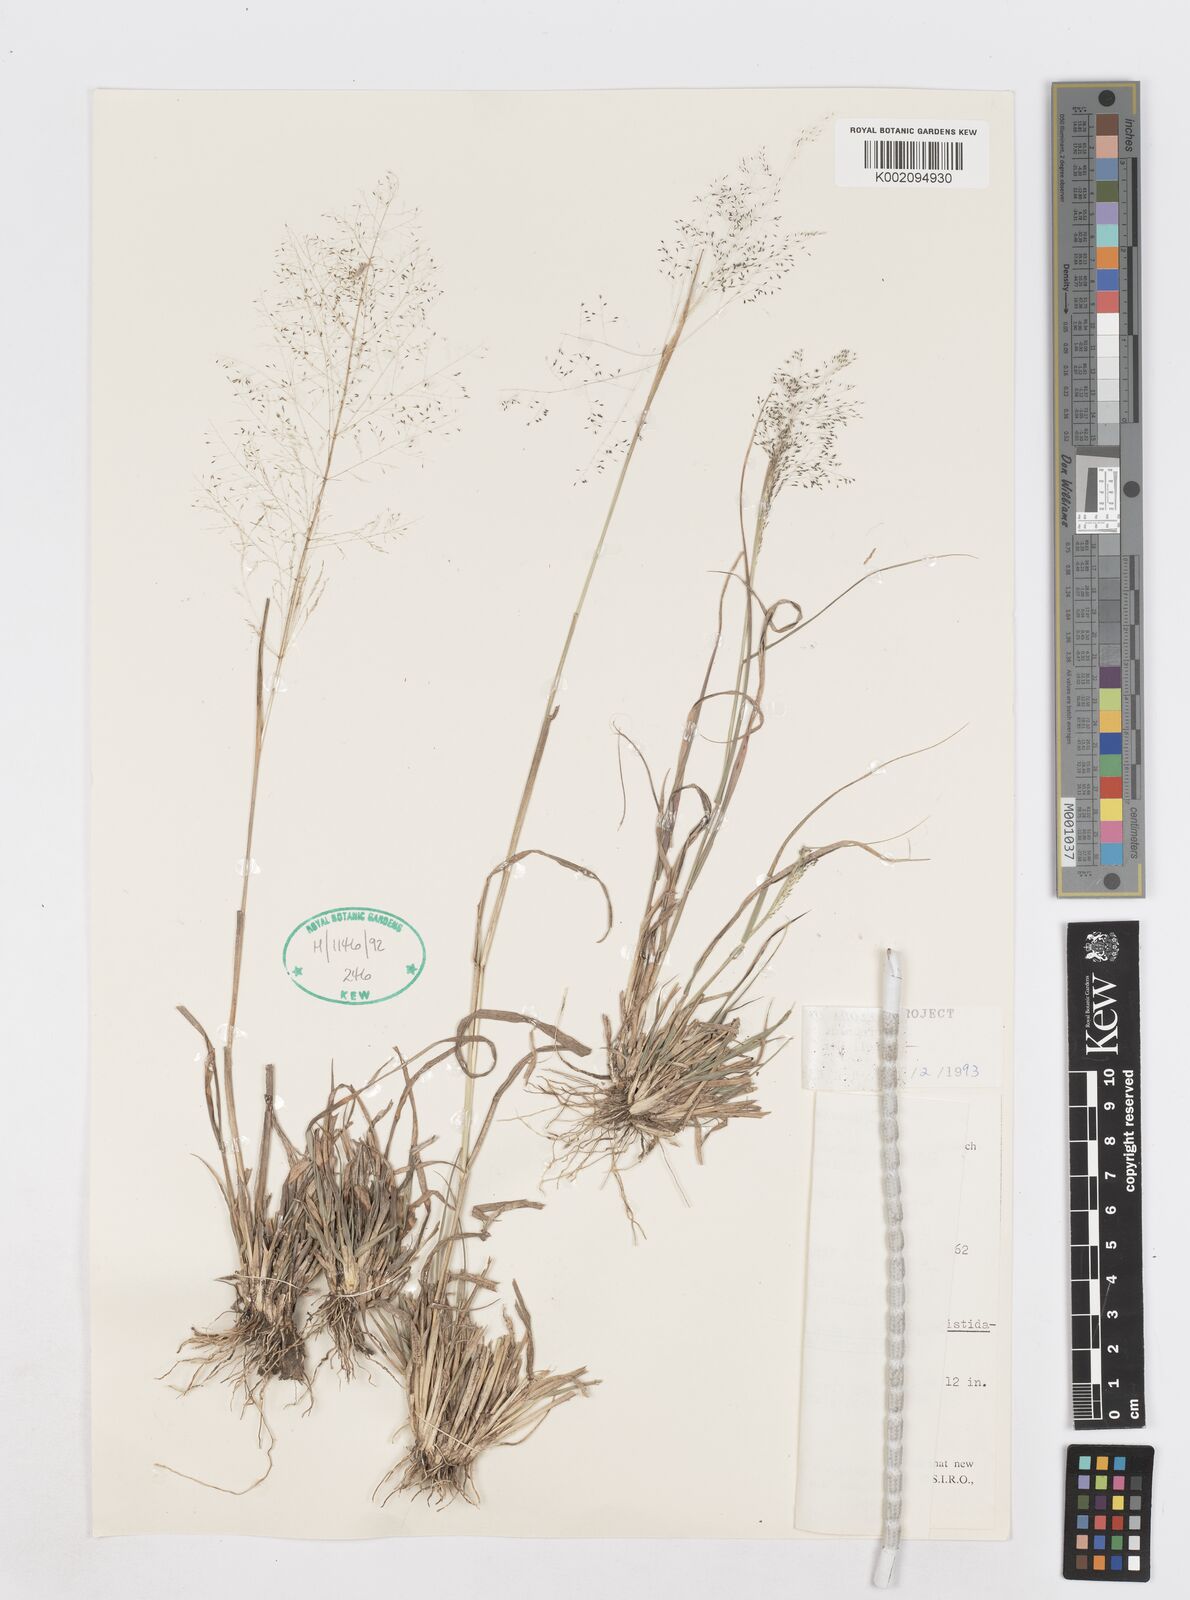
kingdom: Plantae
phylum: Tracheophyta
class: Liliopsida
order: Poales
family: Poaceae
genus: Sporobolus
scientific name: Sporobolus caroli
